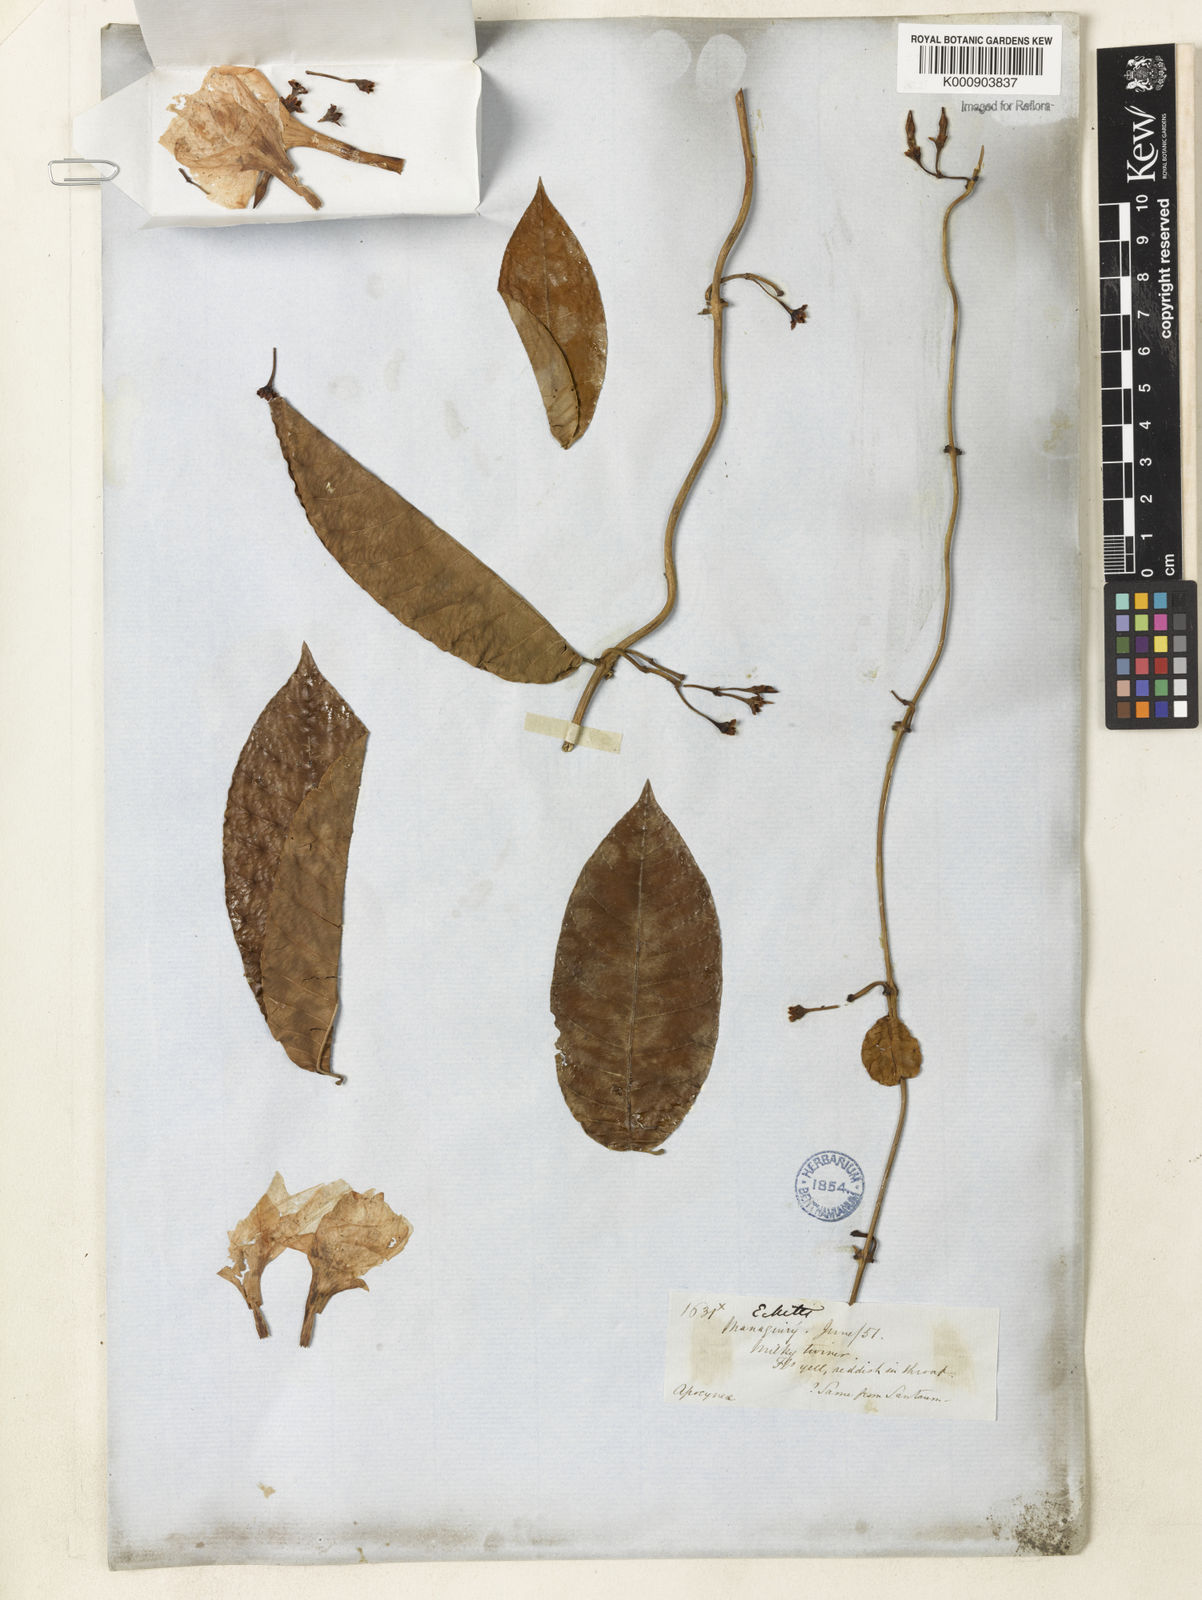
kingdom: Plantae
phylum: Tracheophyta
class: Magnoliopsida
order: Gentianales
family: Apocynaceae
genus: Odontadenia
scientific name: Odontadenia
